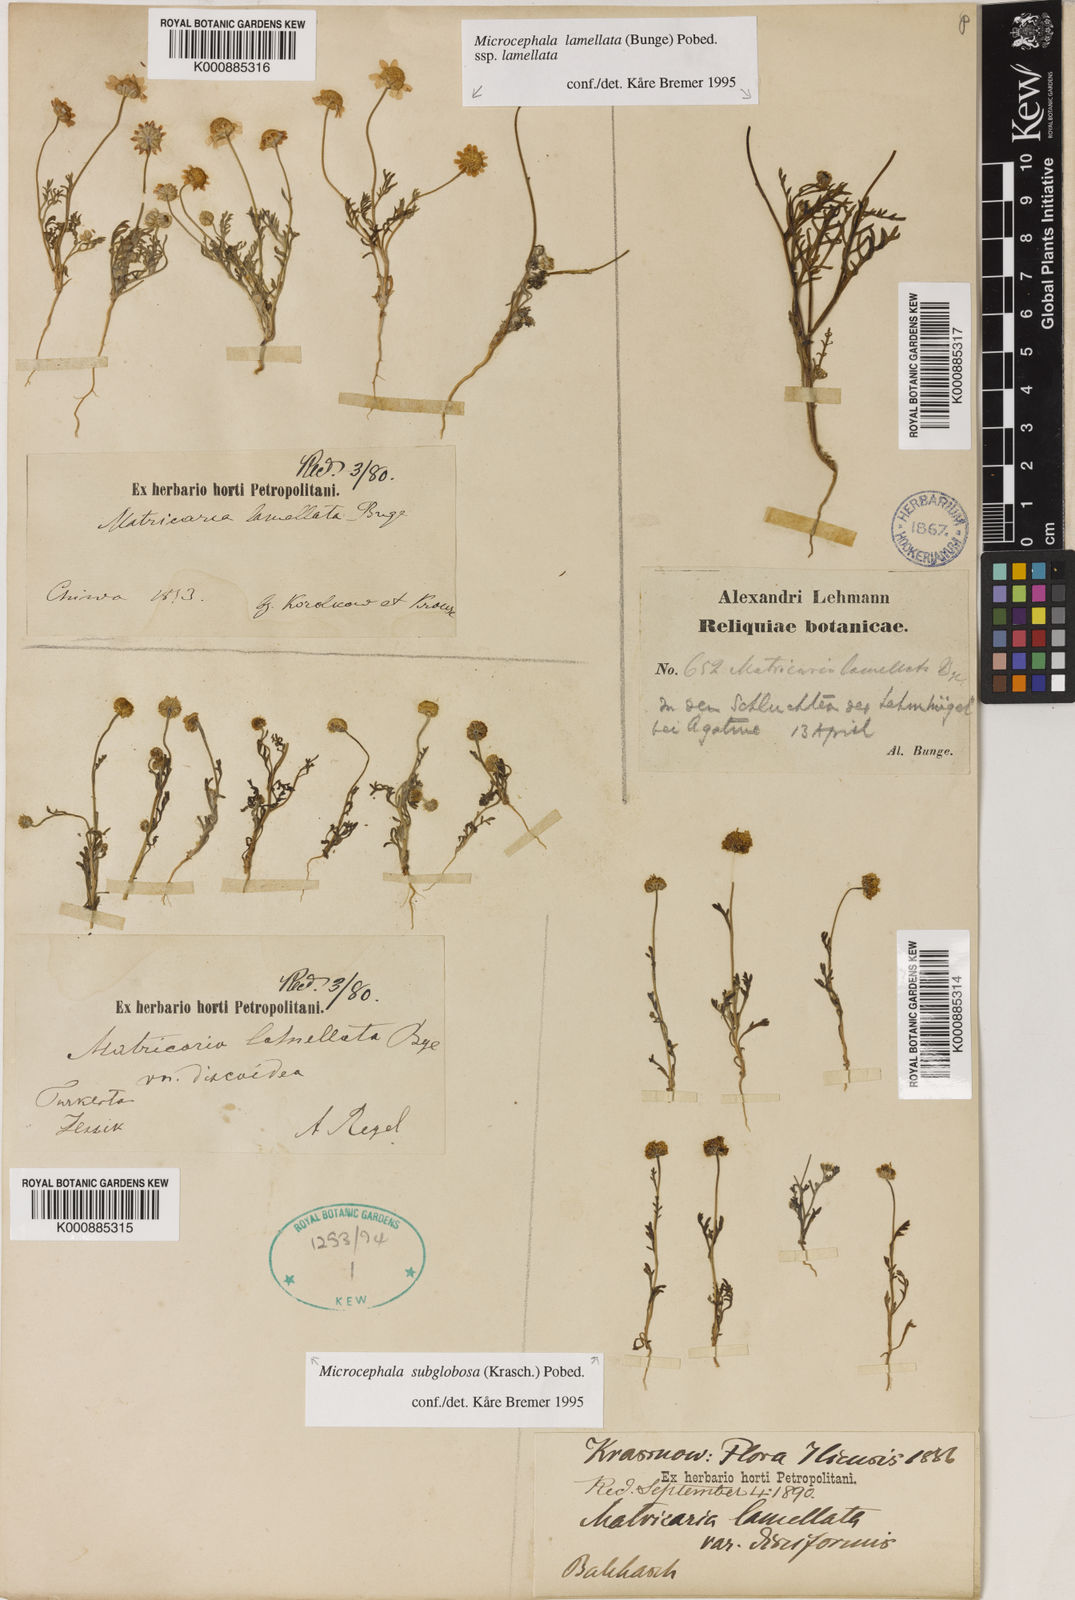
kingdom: Plantae
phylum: Tracheophyta
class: Magnoliopsida
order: Asterales
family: Asteraceae
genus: Microcephala
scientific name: Microcephala subglobosa
